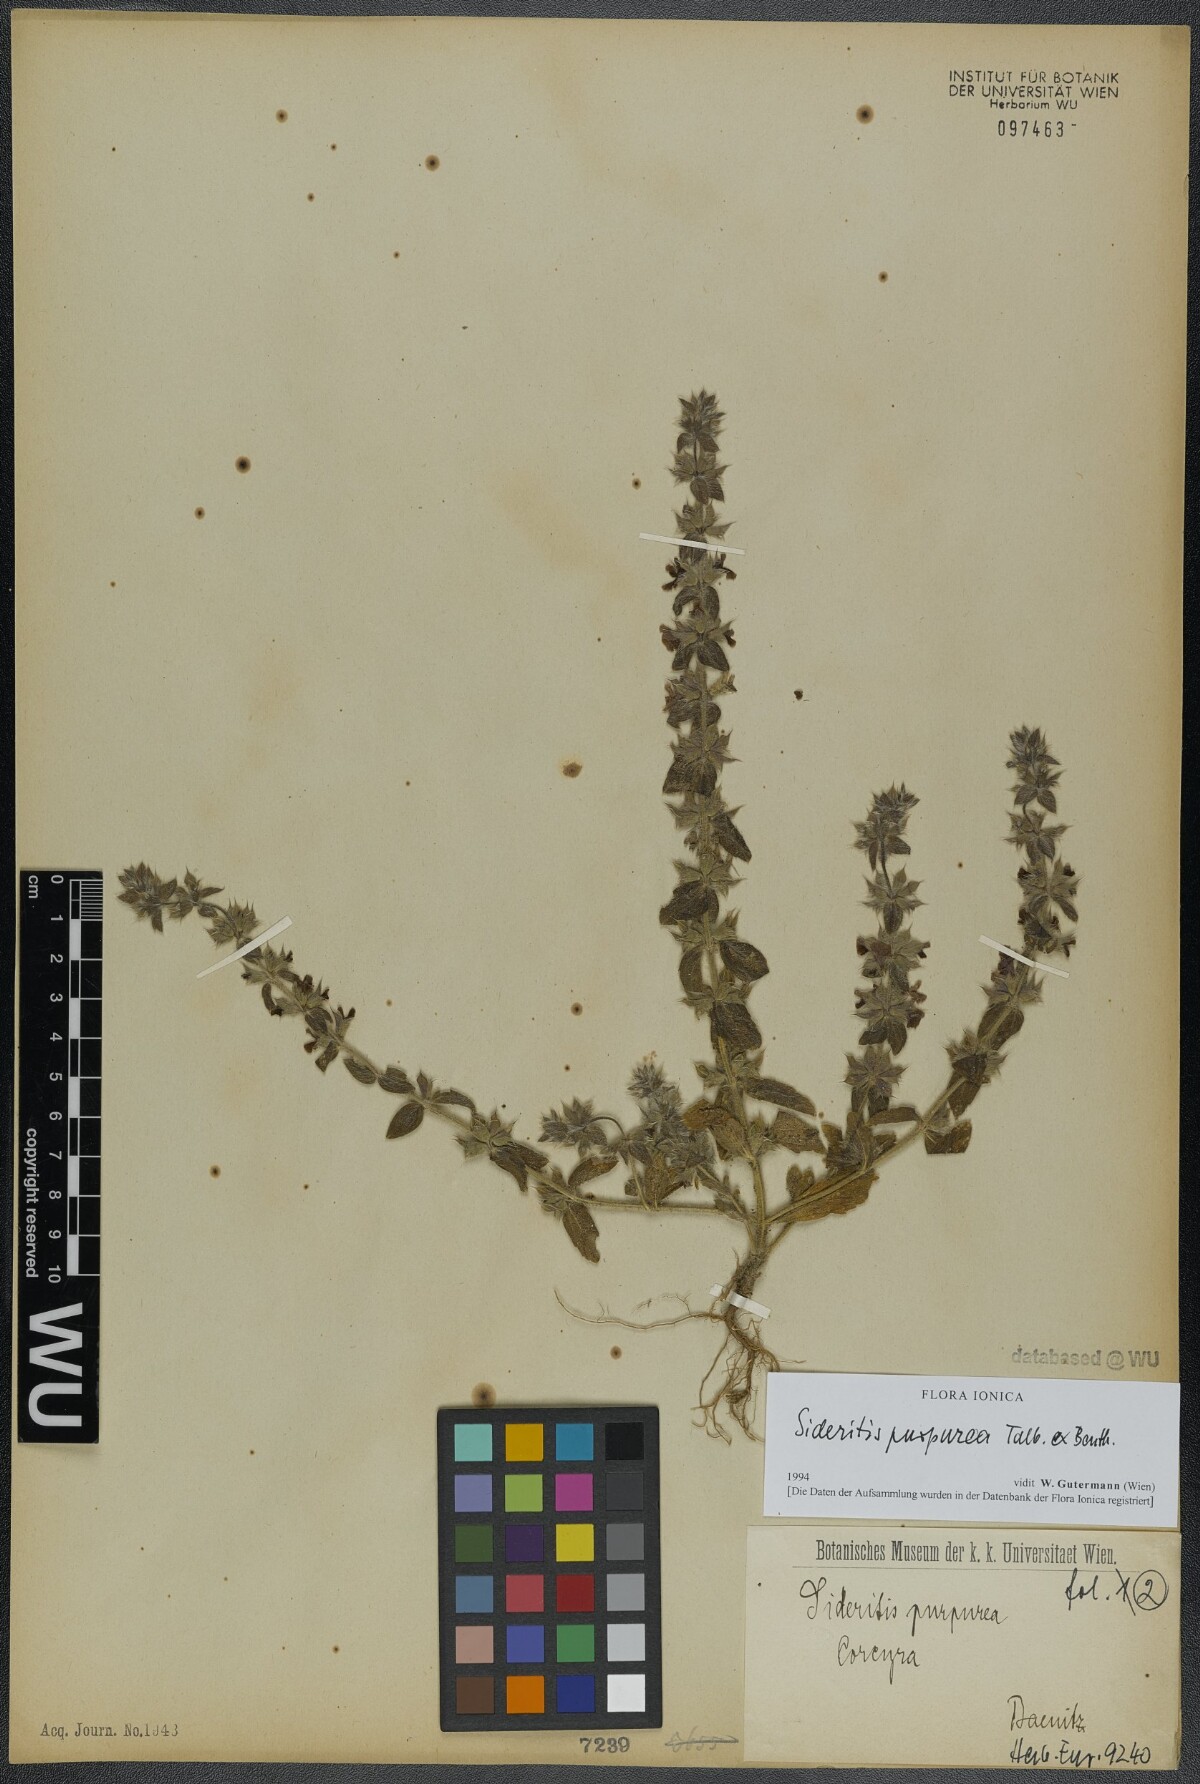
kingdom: Plantae
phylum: Tracheophyta
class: Magnoliopsida
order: Lamiales
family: Lamiaceae
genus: Sideritis
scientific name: Sideritis romana
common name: Simplebeak ironwort
